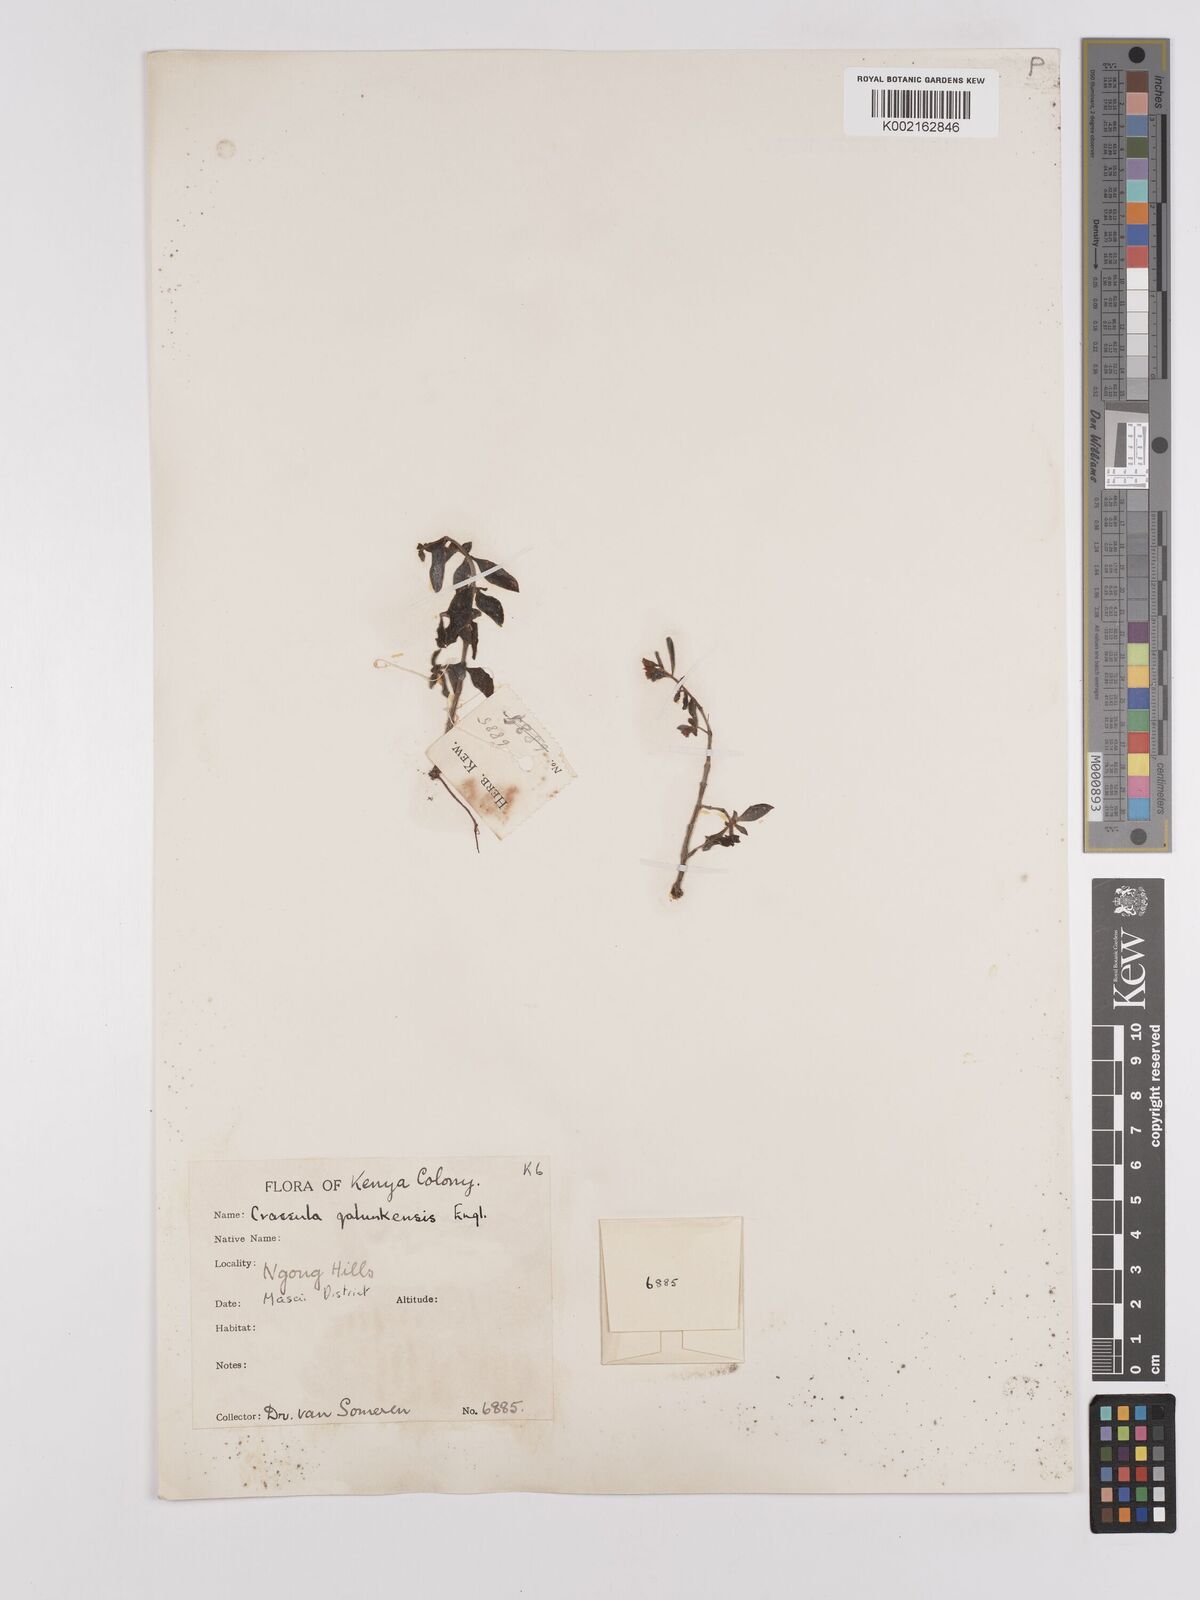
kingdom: Plantae
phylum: Tracheophyta
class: Magnoliopsida
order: Saxifragales
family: Crassulaceae
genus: Crassula
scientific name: Crassula volkensii
